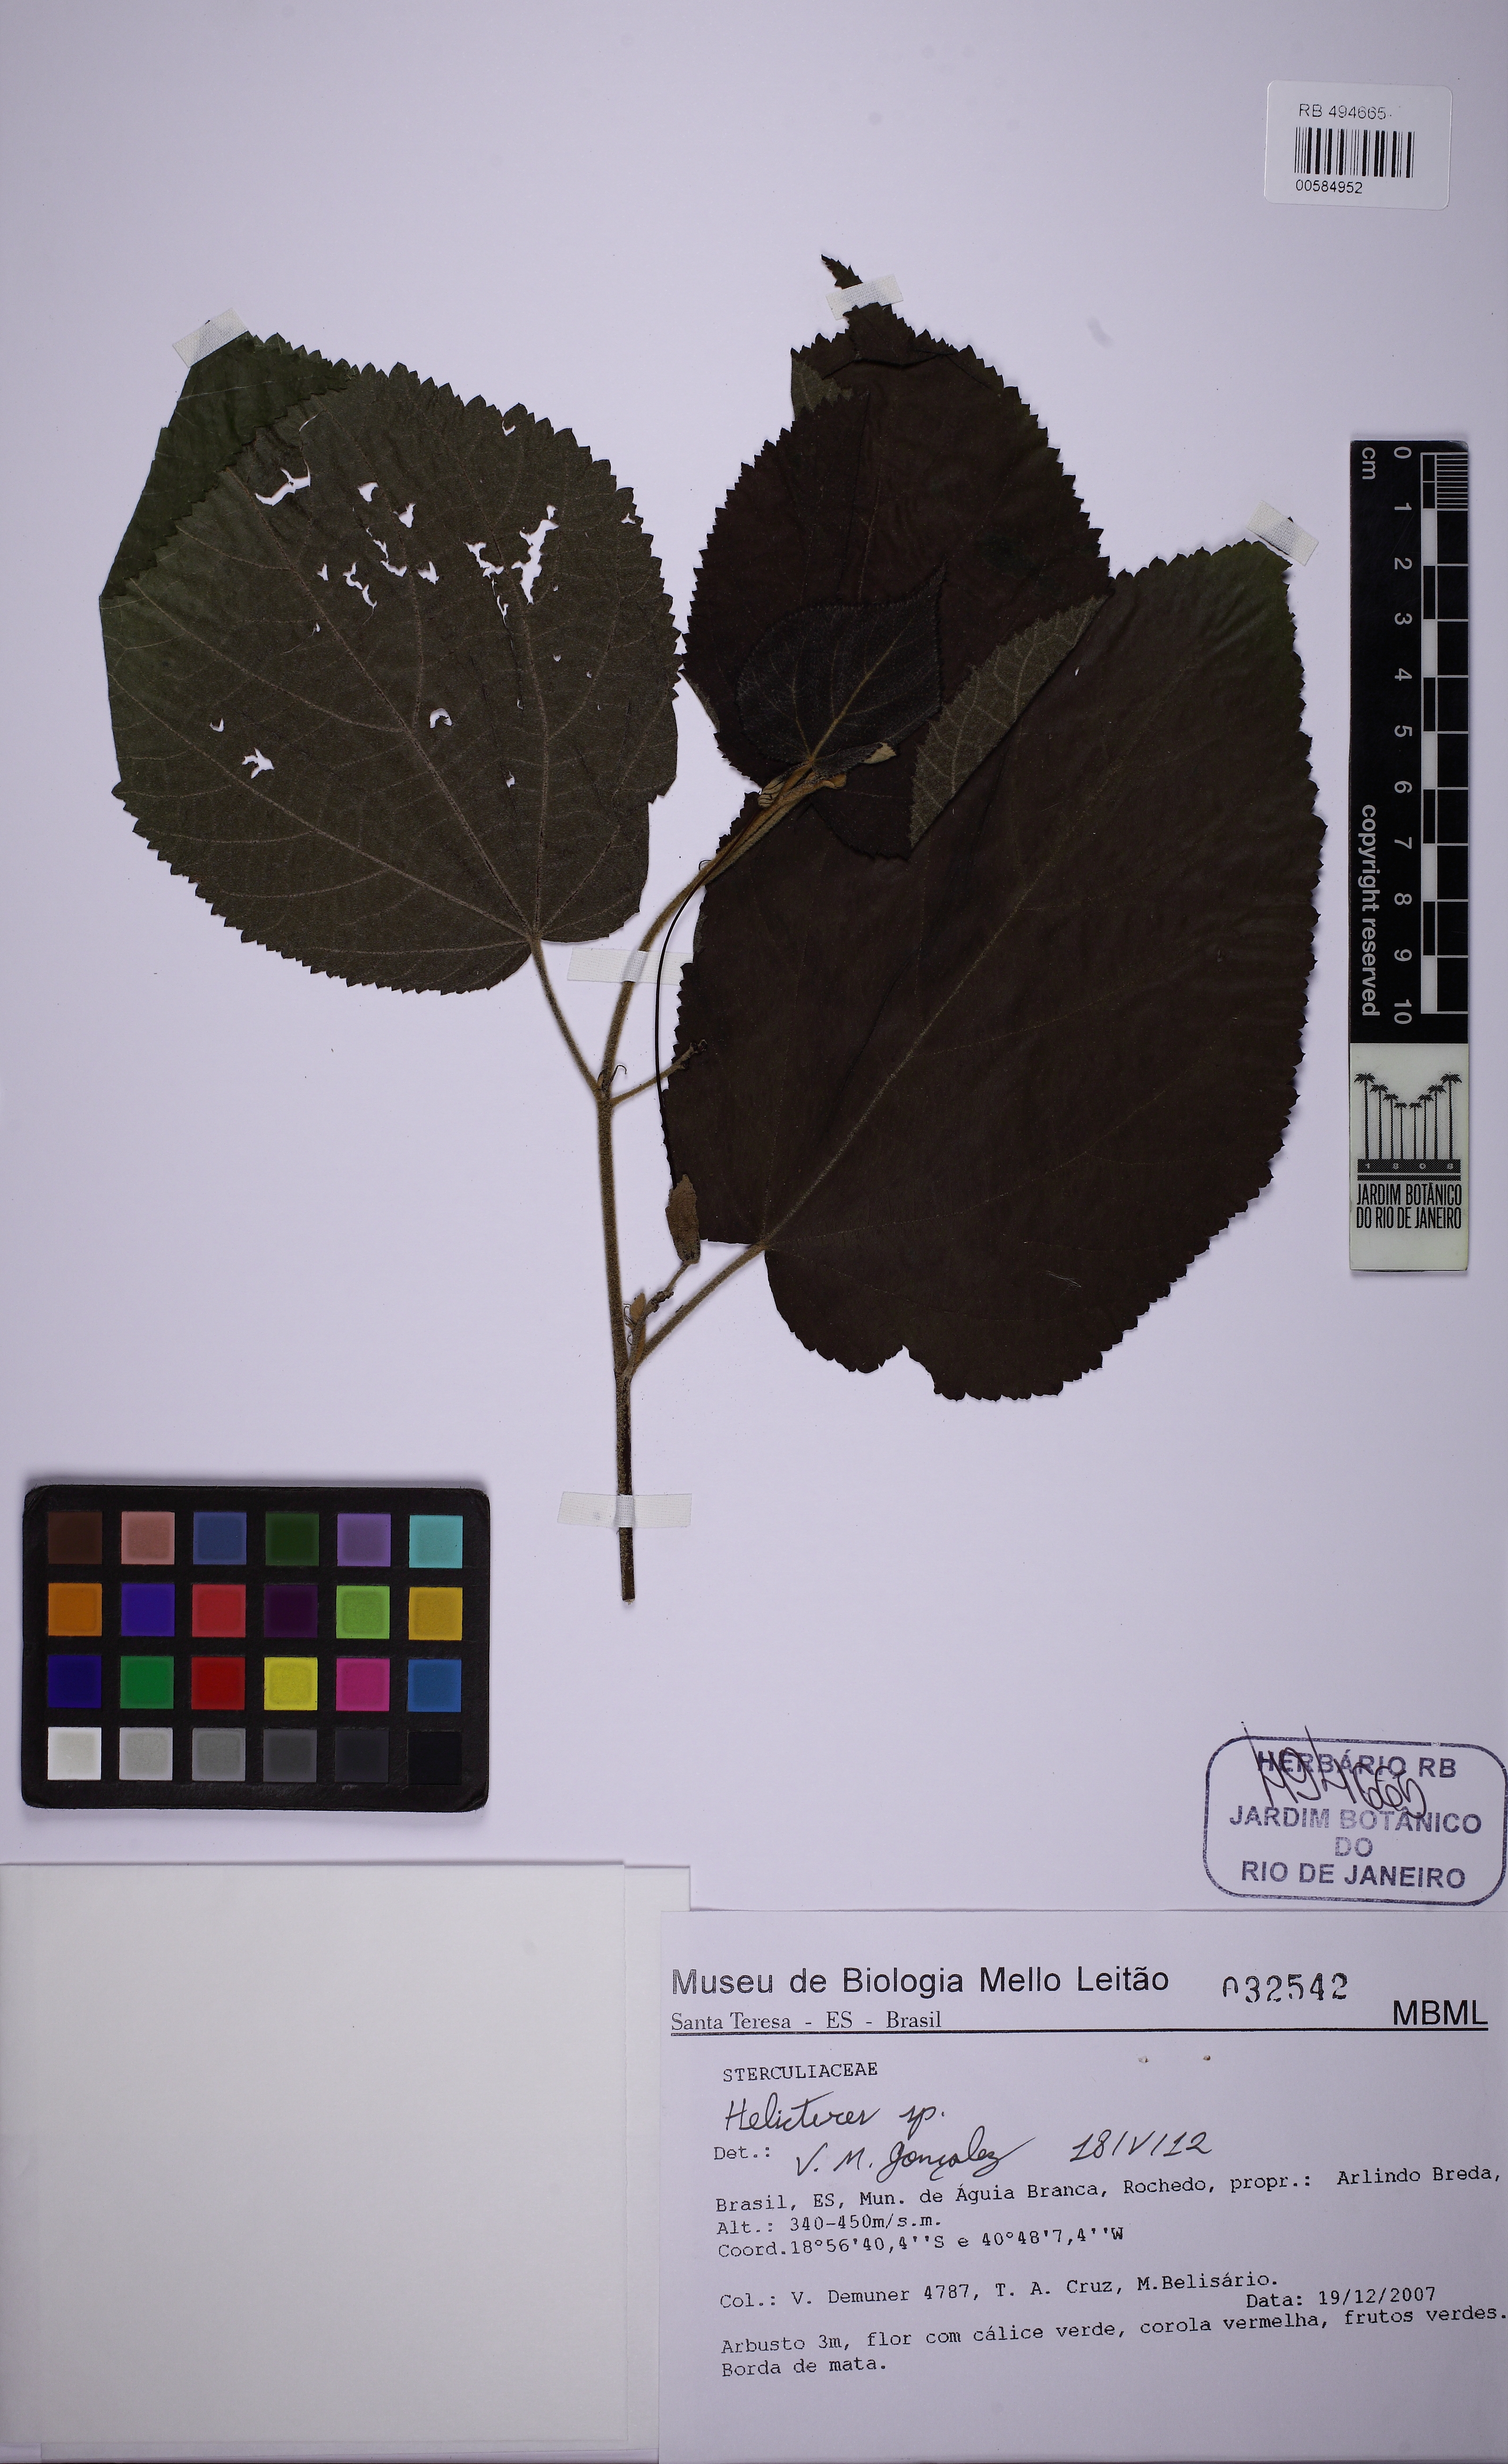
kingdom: Plantae
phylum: Tracheophyta
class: Magnoliopsida
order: Malvales
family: Malvaceae
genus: Helicteres
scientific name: Helicteres
